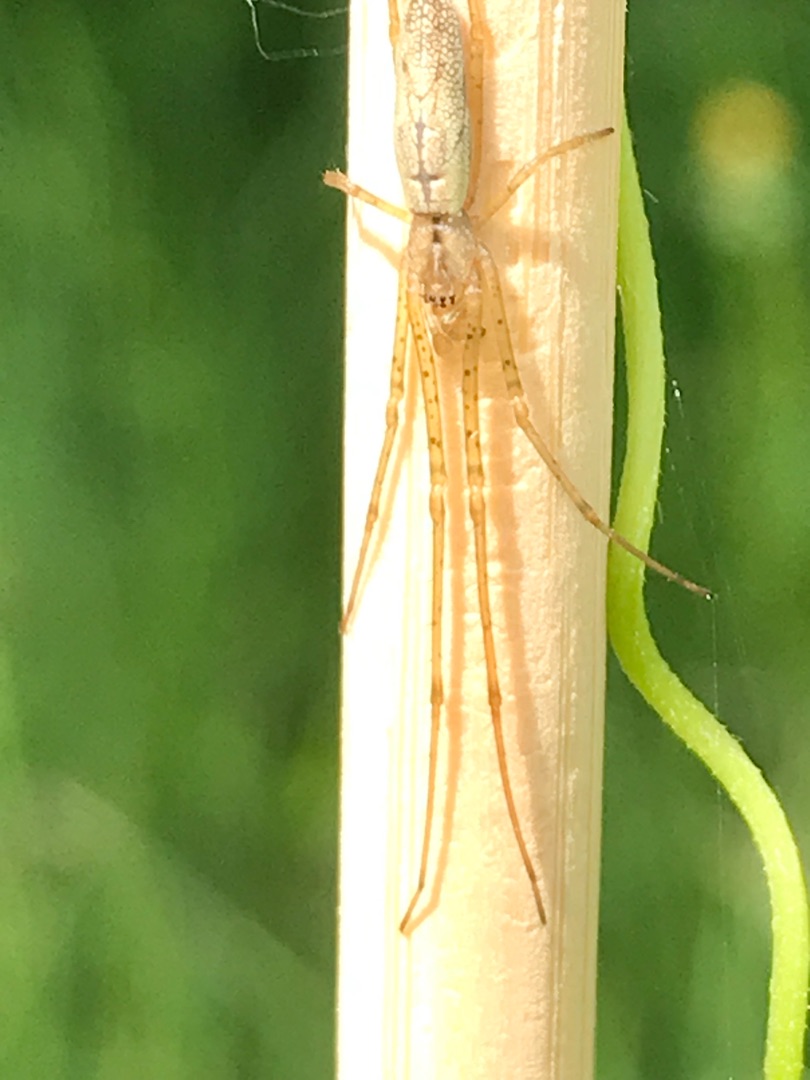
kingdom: Animalia
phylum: Arthropoda
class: Arachnida
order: Araneae
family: Tetragnathidae
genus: Tetragnatha
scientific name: Tetragnatha
